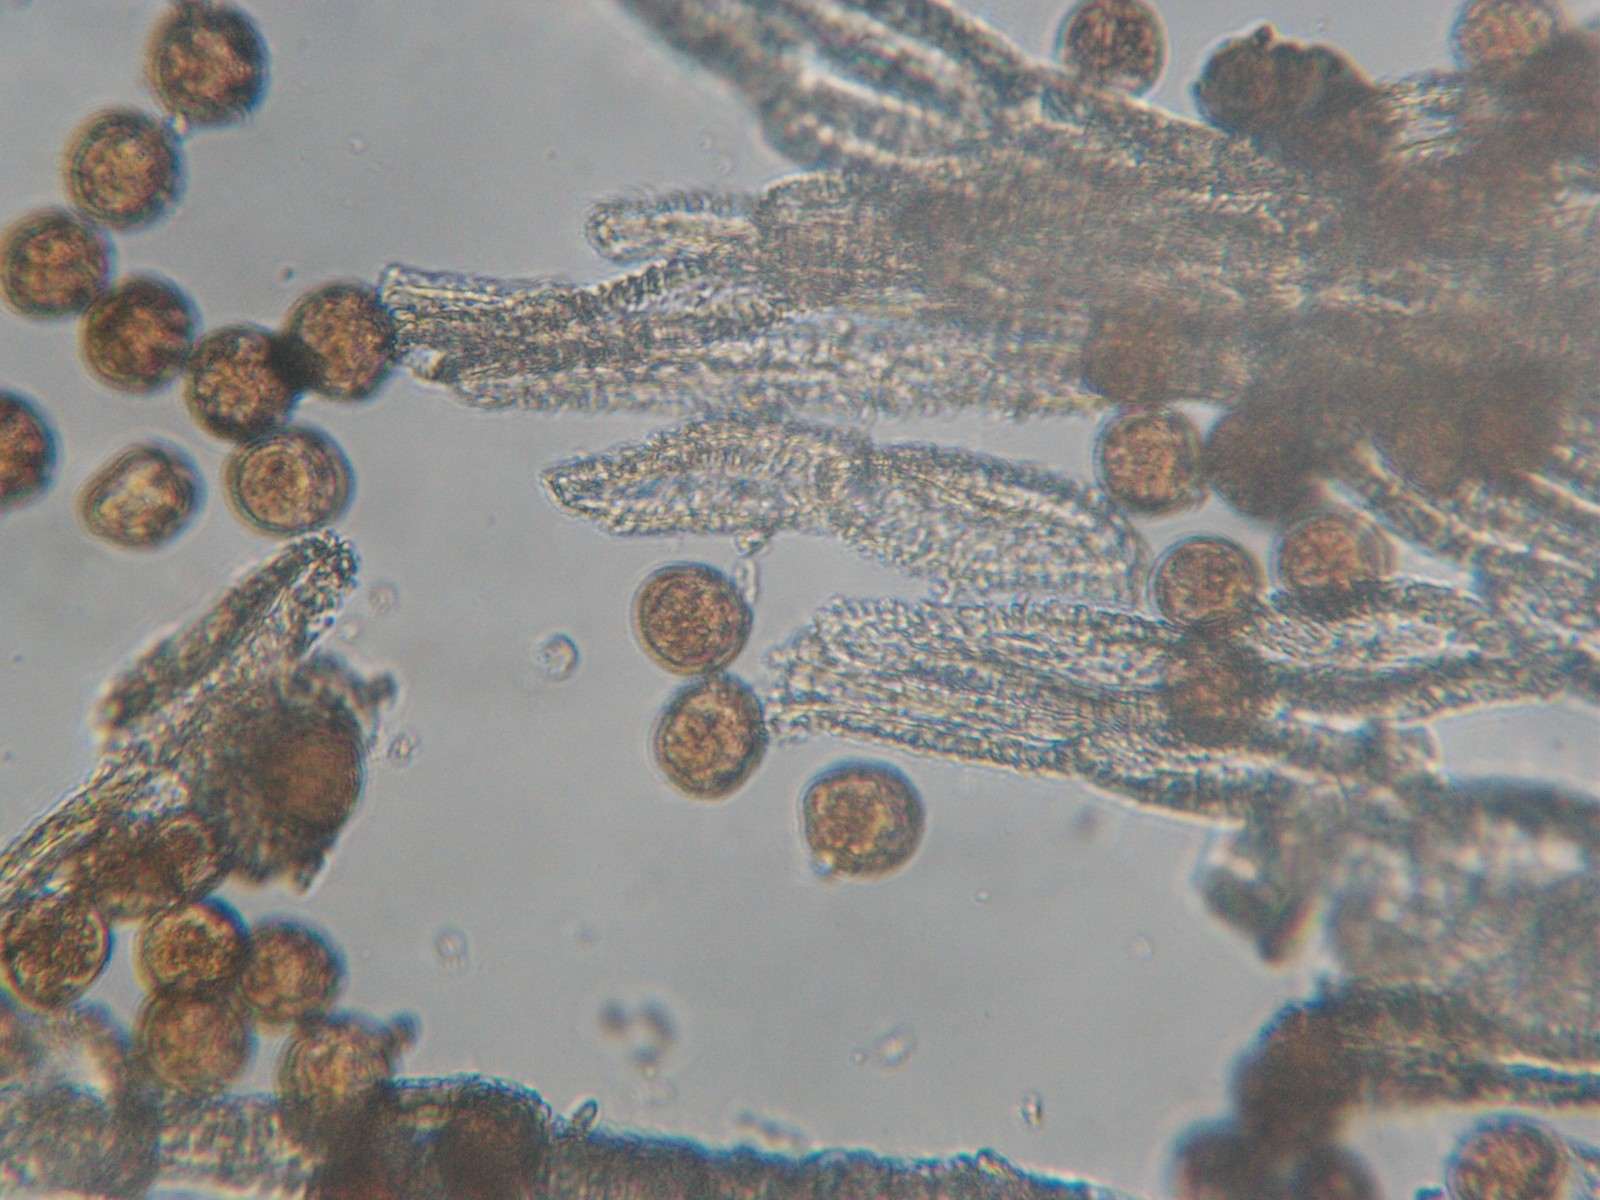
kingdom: Fungi
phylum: Basidiomycota
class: Pucciniomycetes
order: Pucciniales
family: Gymnosporangiaceae
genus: Gymnosporangium
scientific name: Gymnosporangium clavariiforme
